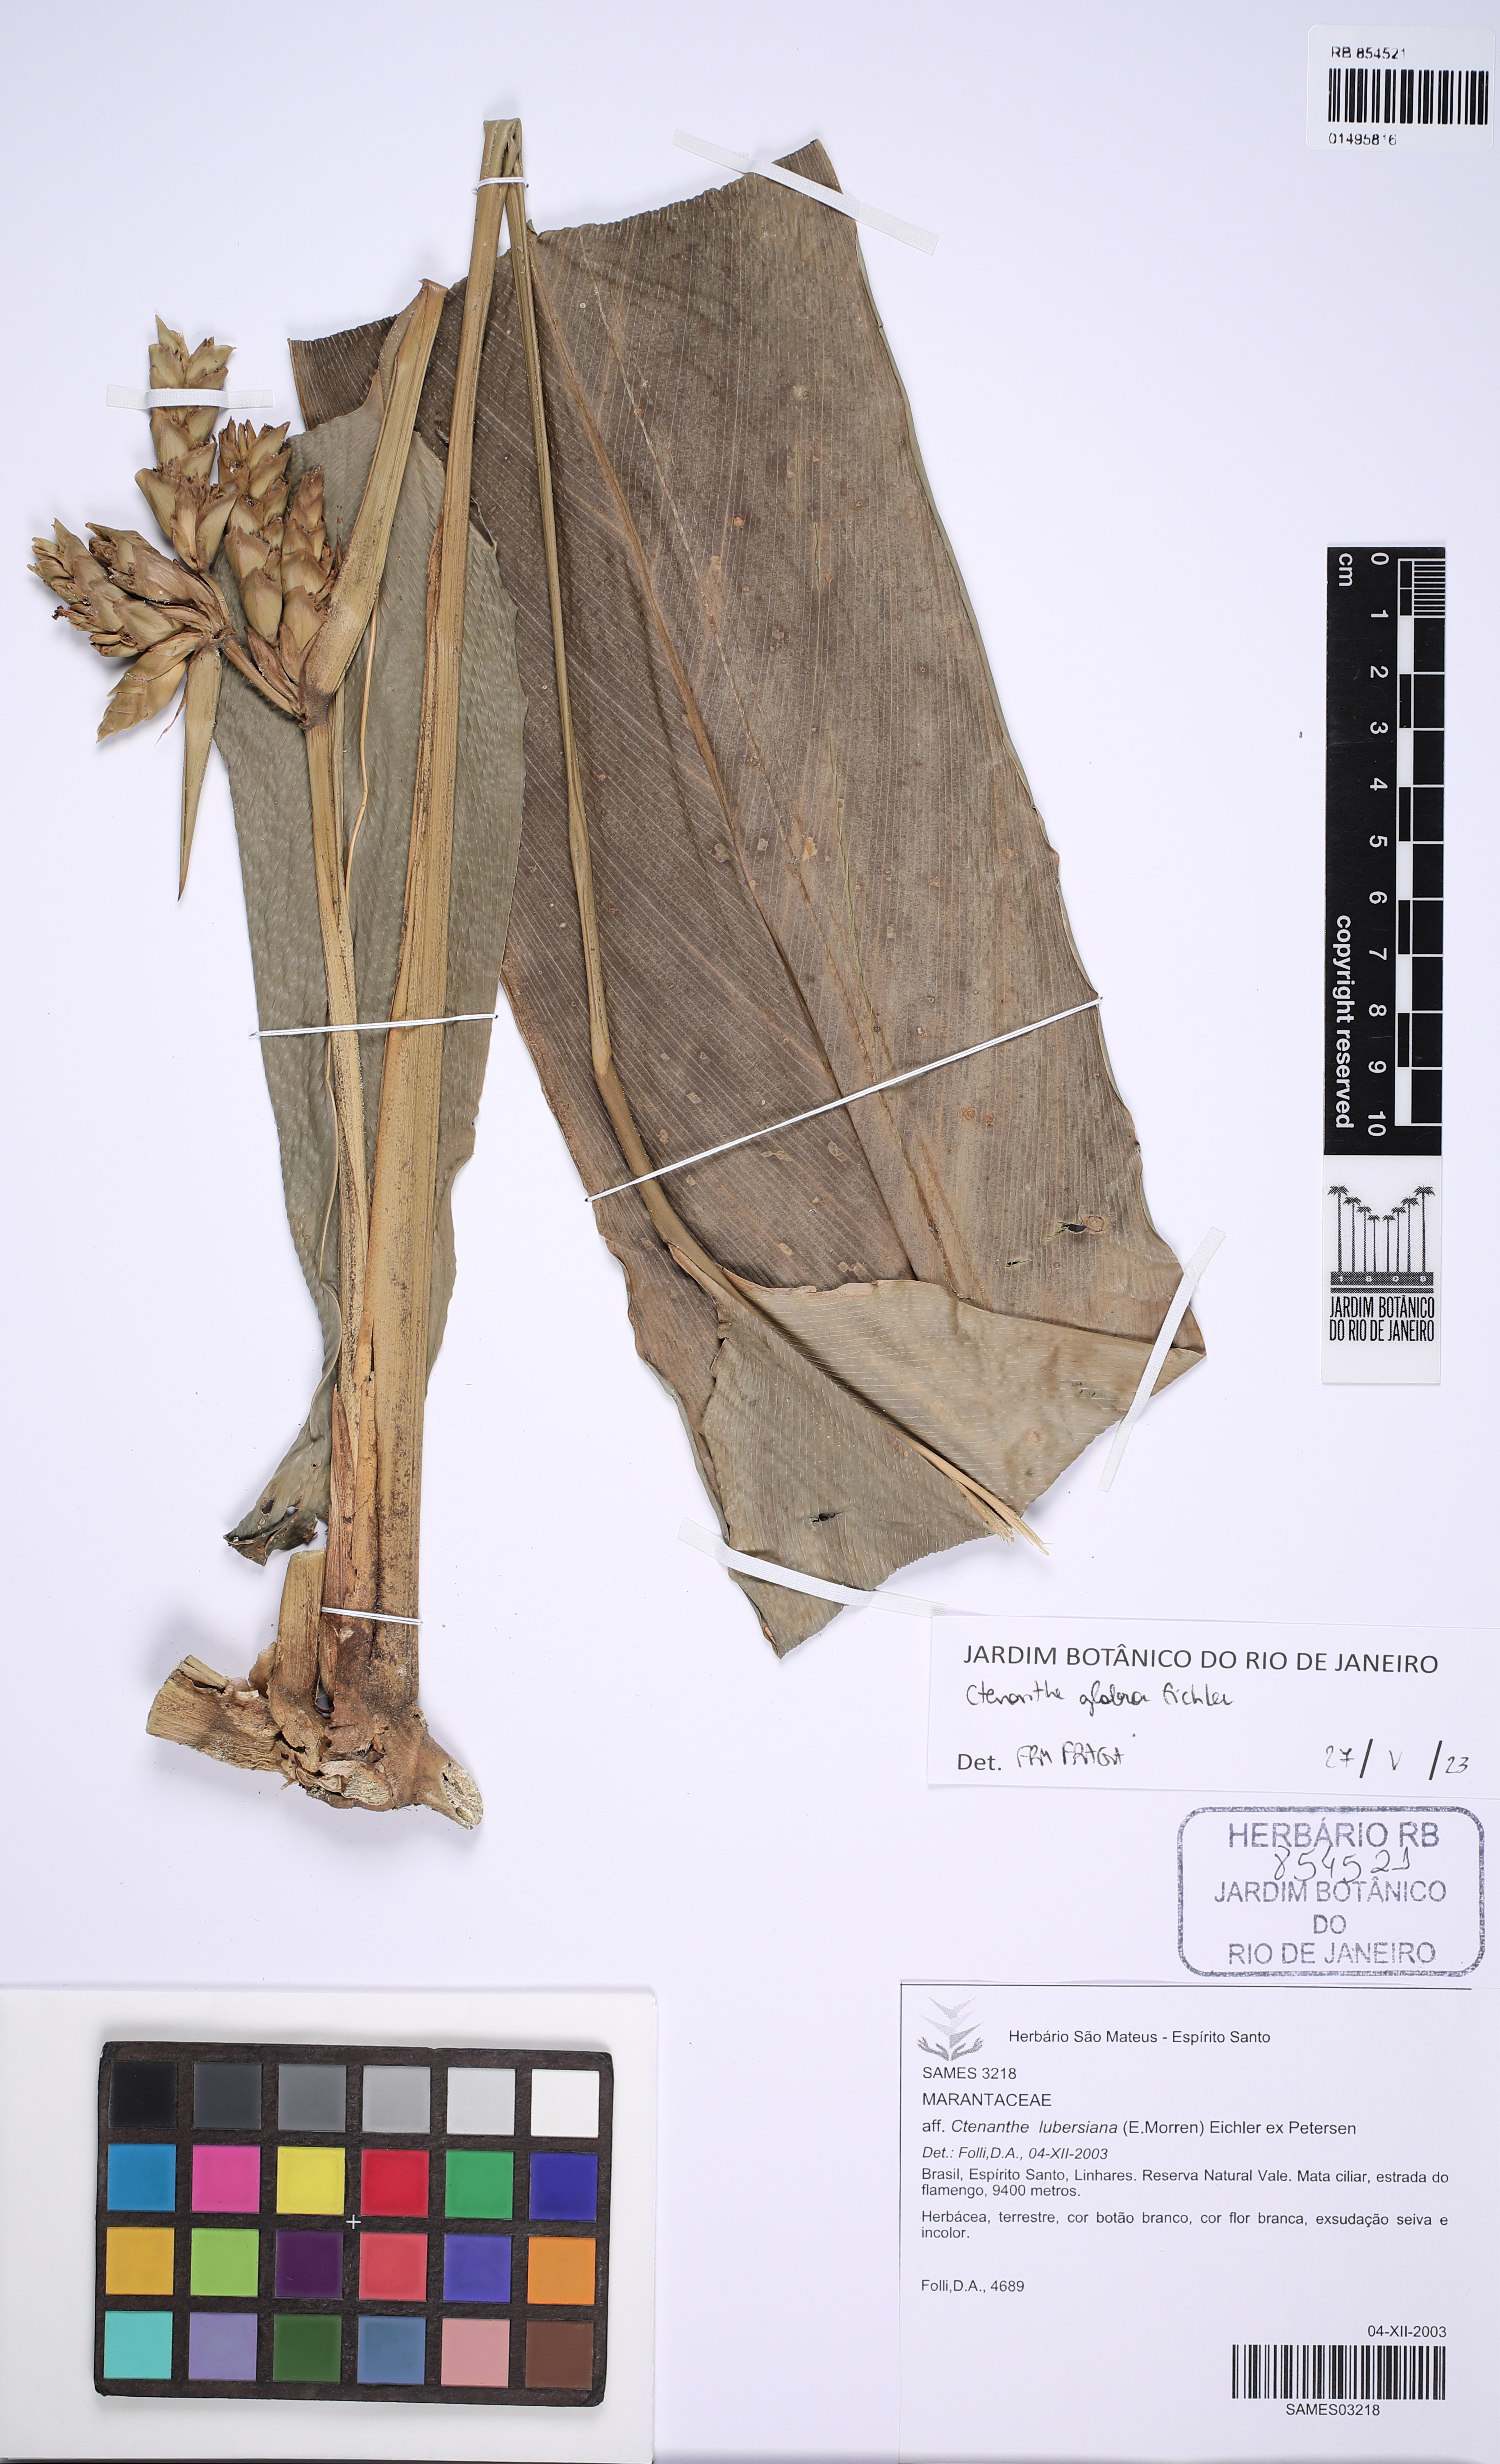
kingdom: Plantae
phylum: Tracheophyta
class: Liliopsida
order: Zingiberales
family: Marantaceae
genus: Ctenanthe
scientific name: Ctenanthe glabra
